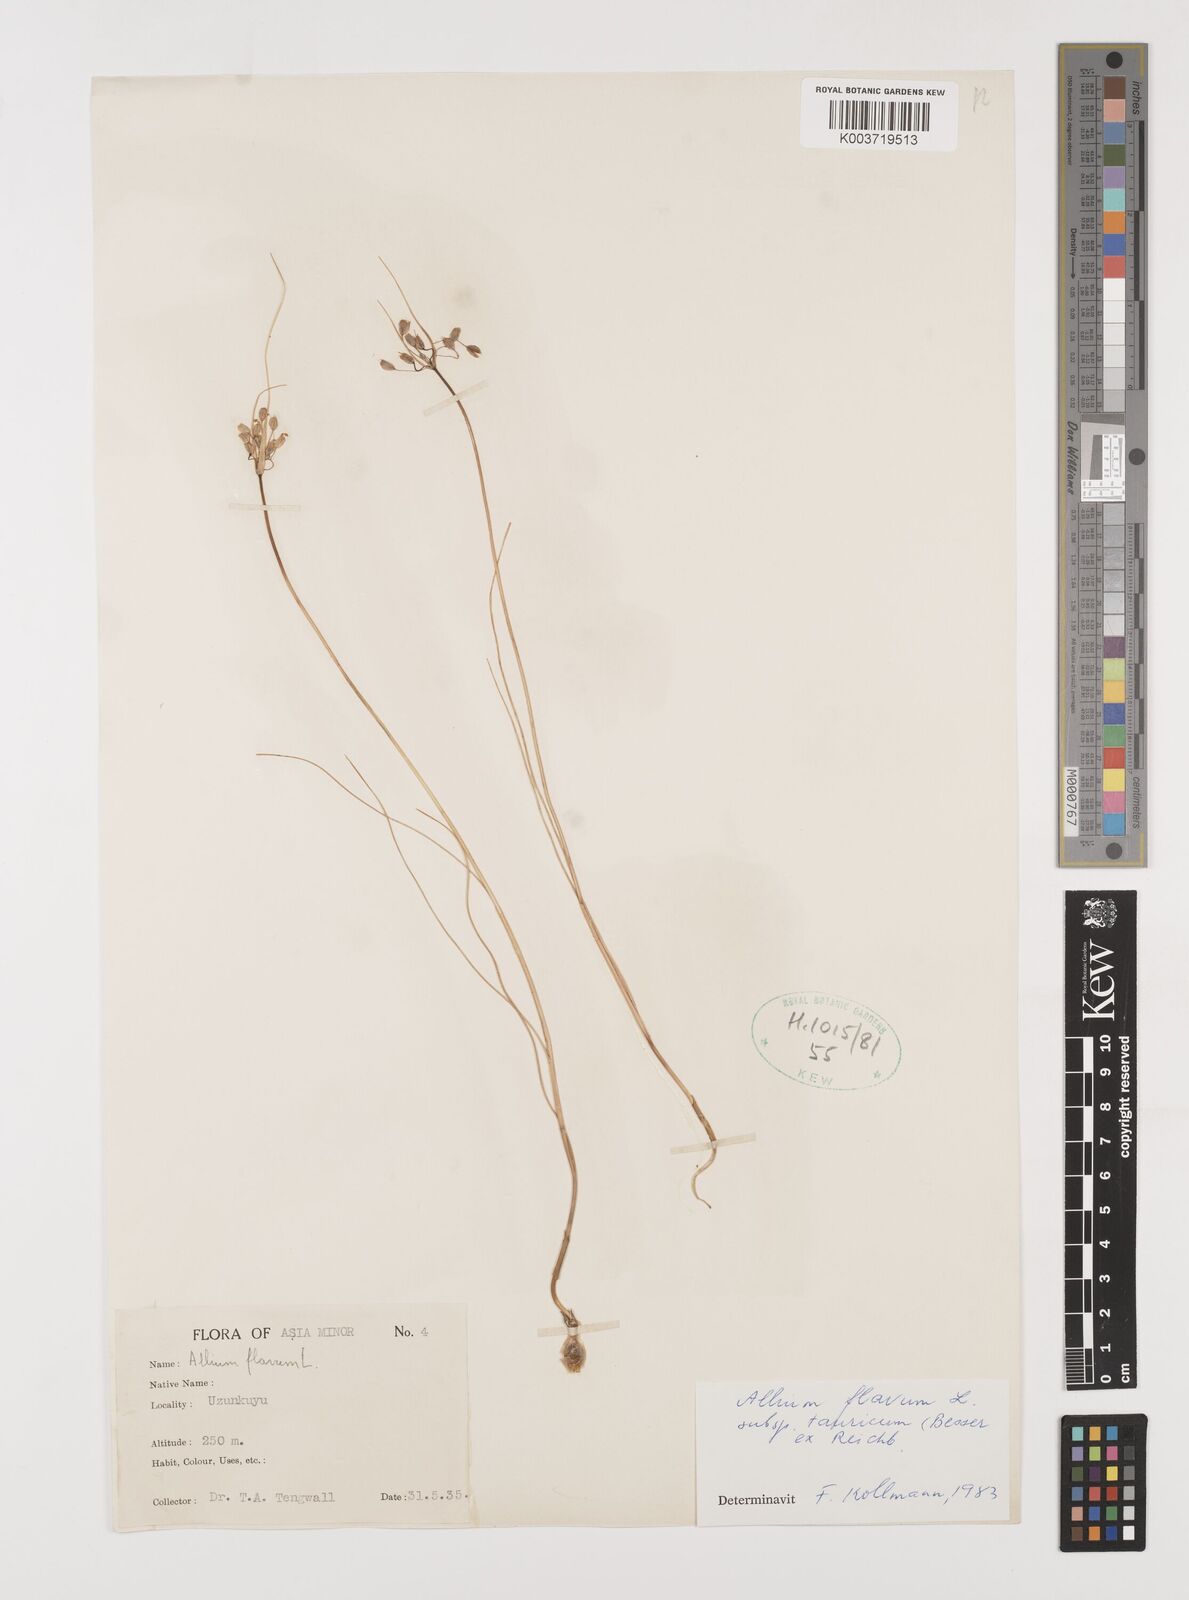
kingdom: Plantae
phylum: Tracheophyta
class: Liliopsida
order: Asparagales
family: Amaryllidaceae
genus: Allium
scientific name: Allium flavum
